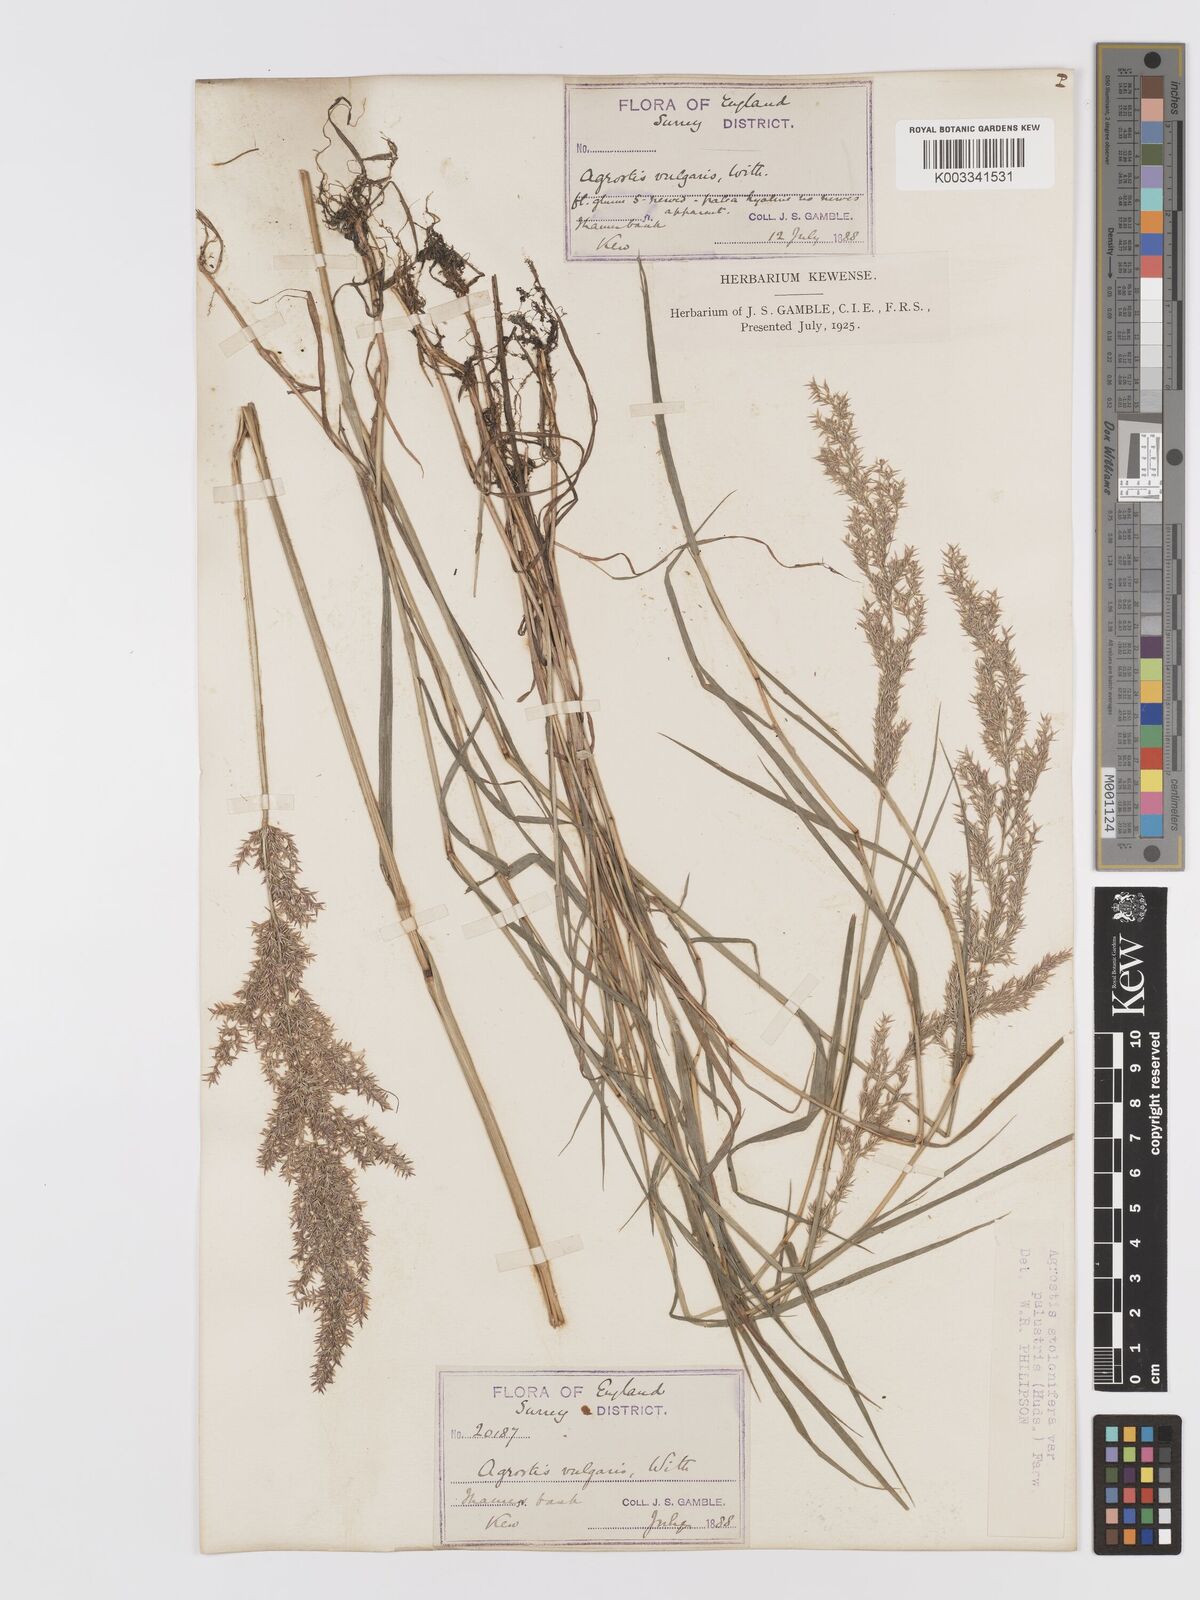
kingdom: Plantae
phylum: Tracheophyta
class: Liliopsida
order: Poales
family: Poaceae
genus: Agrostis
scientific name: Agrostis stolonifera
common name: Creeping bentgrass
